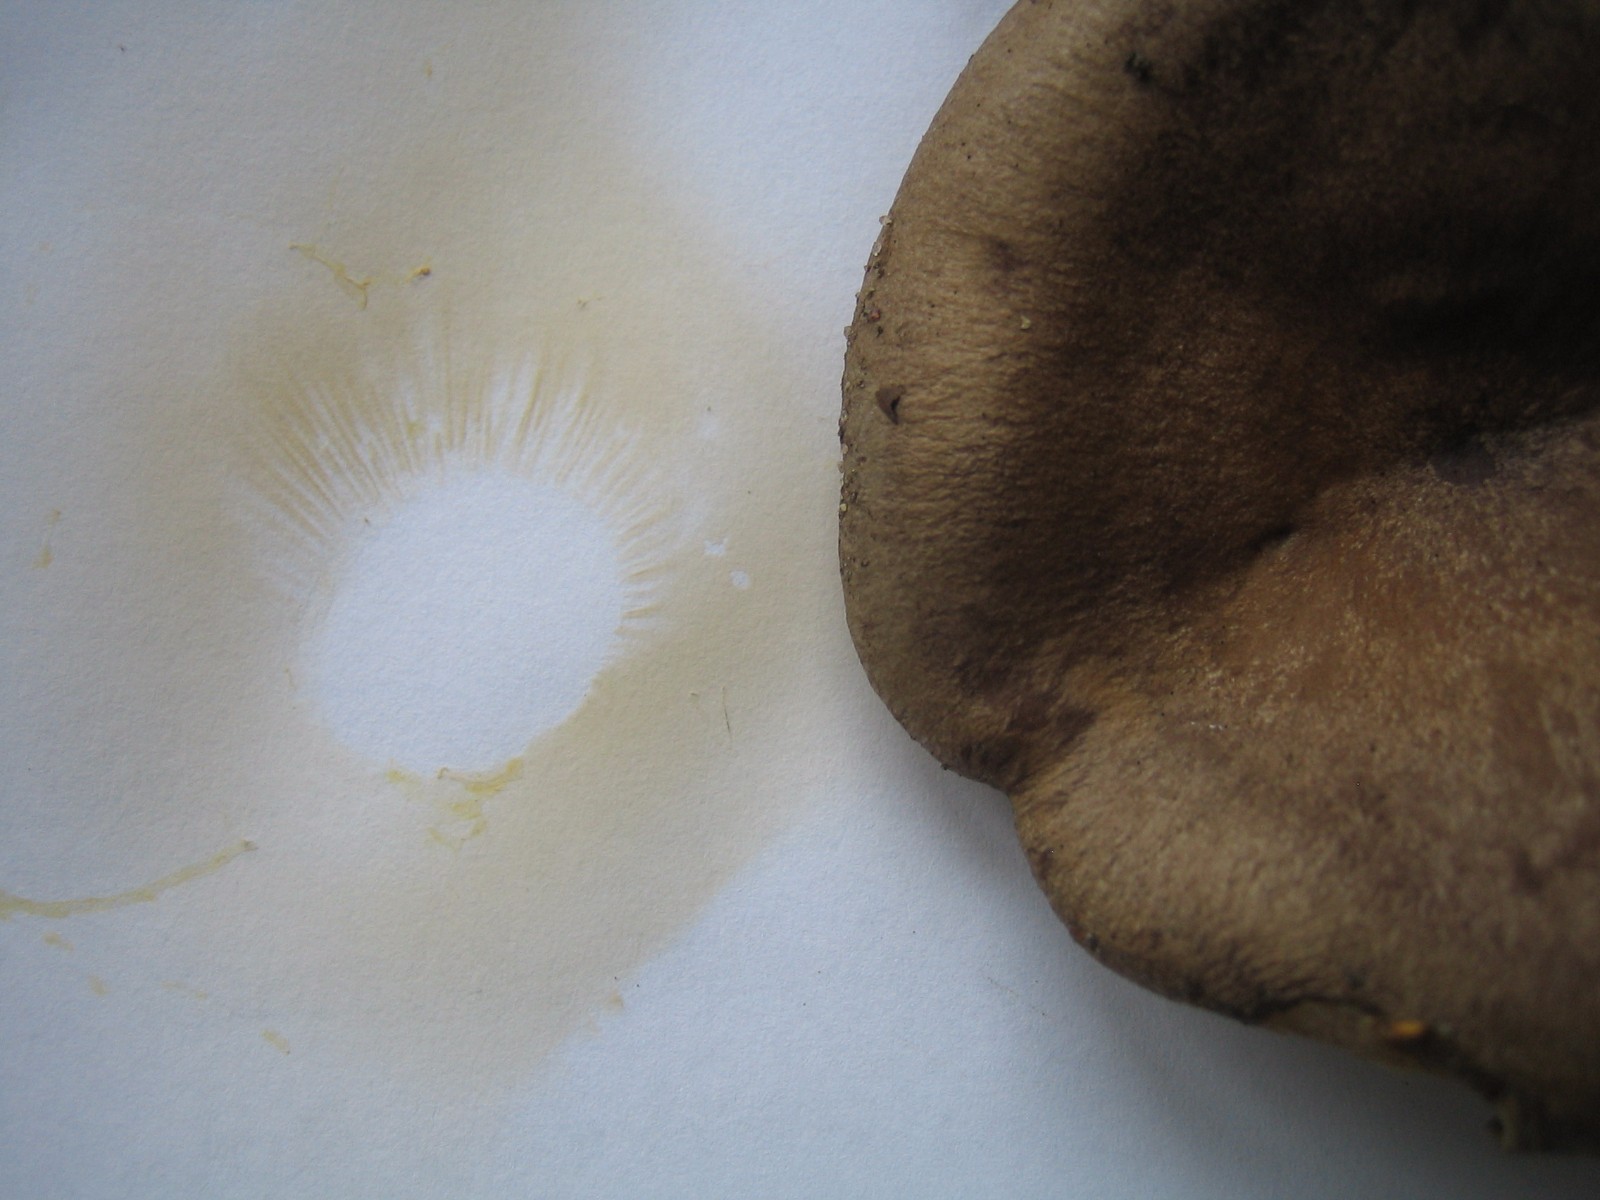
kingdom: Fungi
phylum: Basidiomycota
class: Agaricomycetes
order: Russulales
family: Russulaceae
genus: Lactarius
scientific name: Lactarius circellatus
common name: avnbøg-mælkehat
